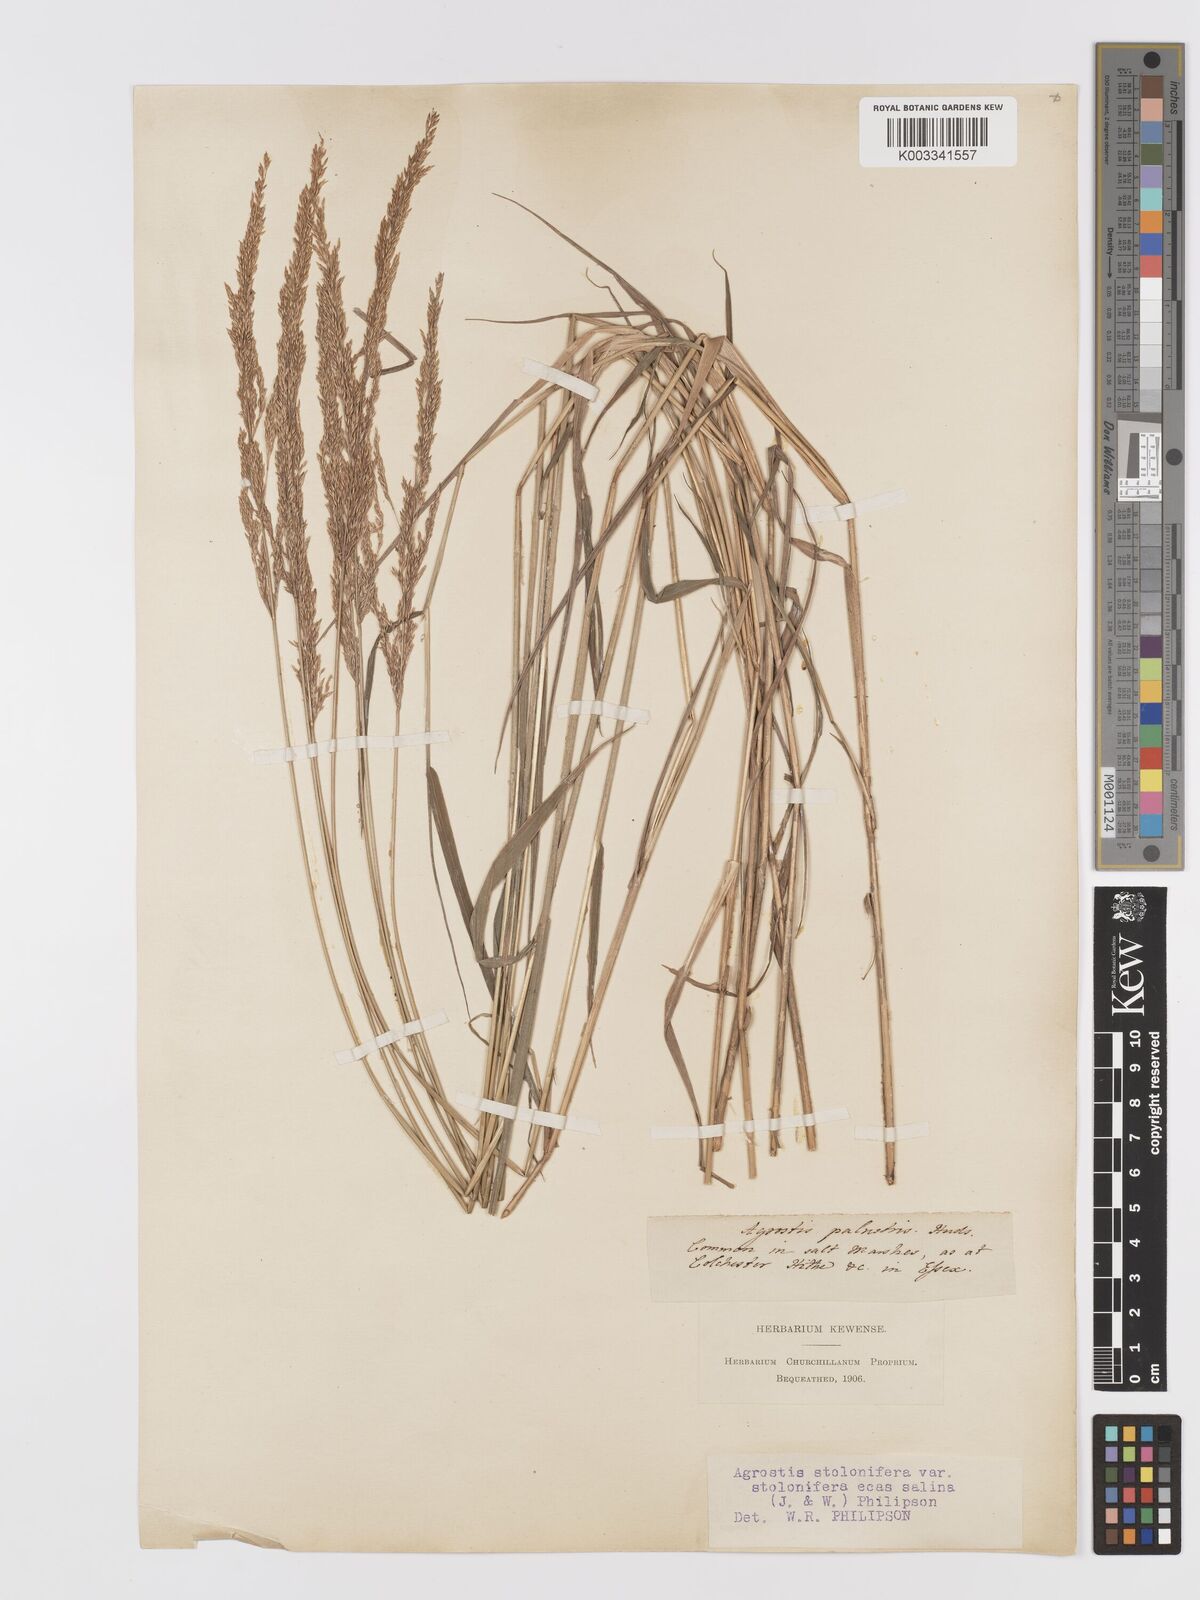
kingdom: Plantae
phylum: Tracheophyta
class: Liliopsida
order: Poales
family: Poaceae
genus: Agrostis
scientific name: Agrostis stolonifera
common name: Creeping bentgrass
